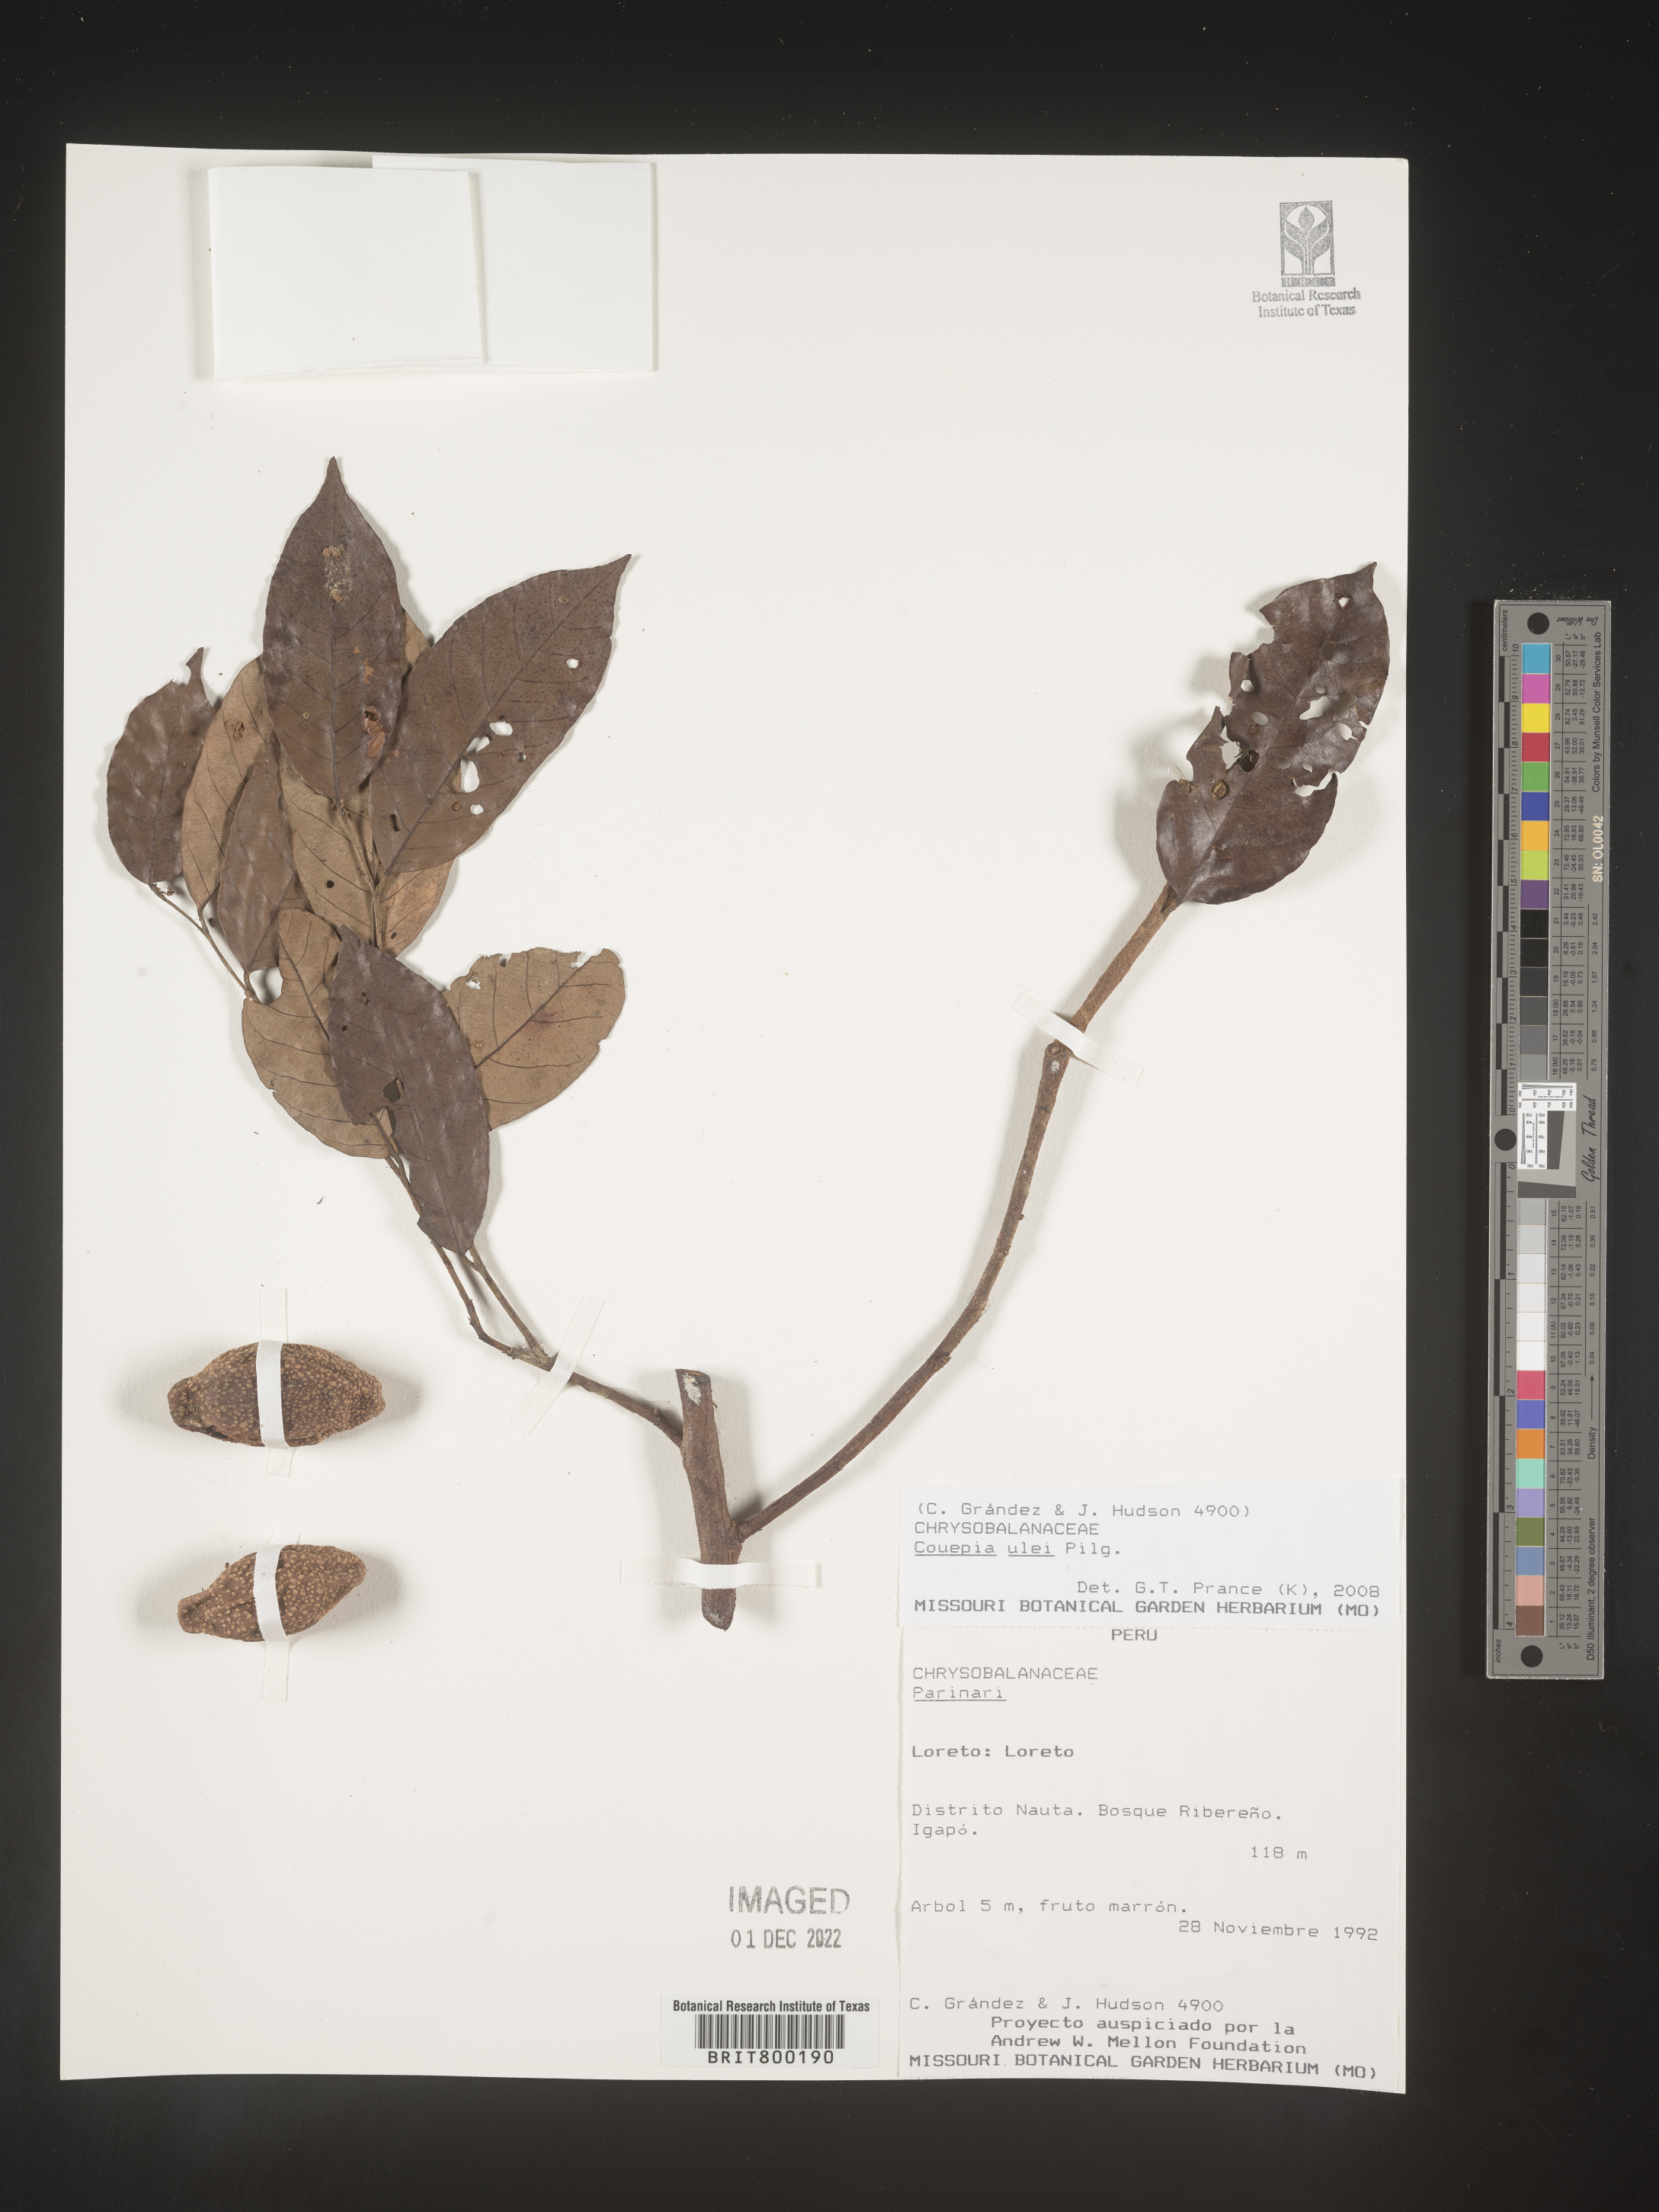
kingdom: Plantae
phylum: Tracheophyta
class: Magnoliopsida
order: Malpighiales
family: Chrysobalanaceae
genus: Couepia
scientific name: Couepia
